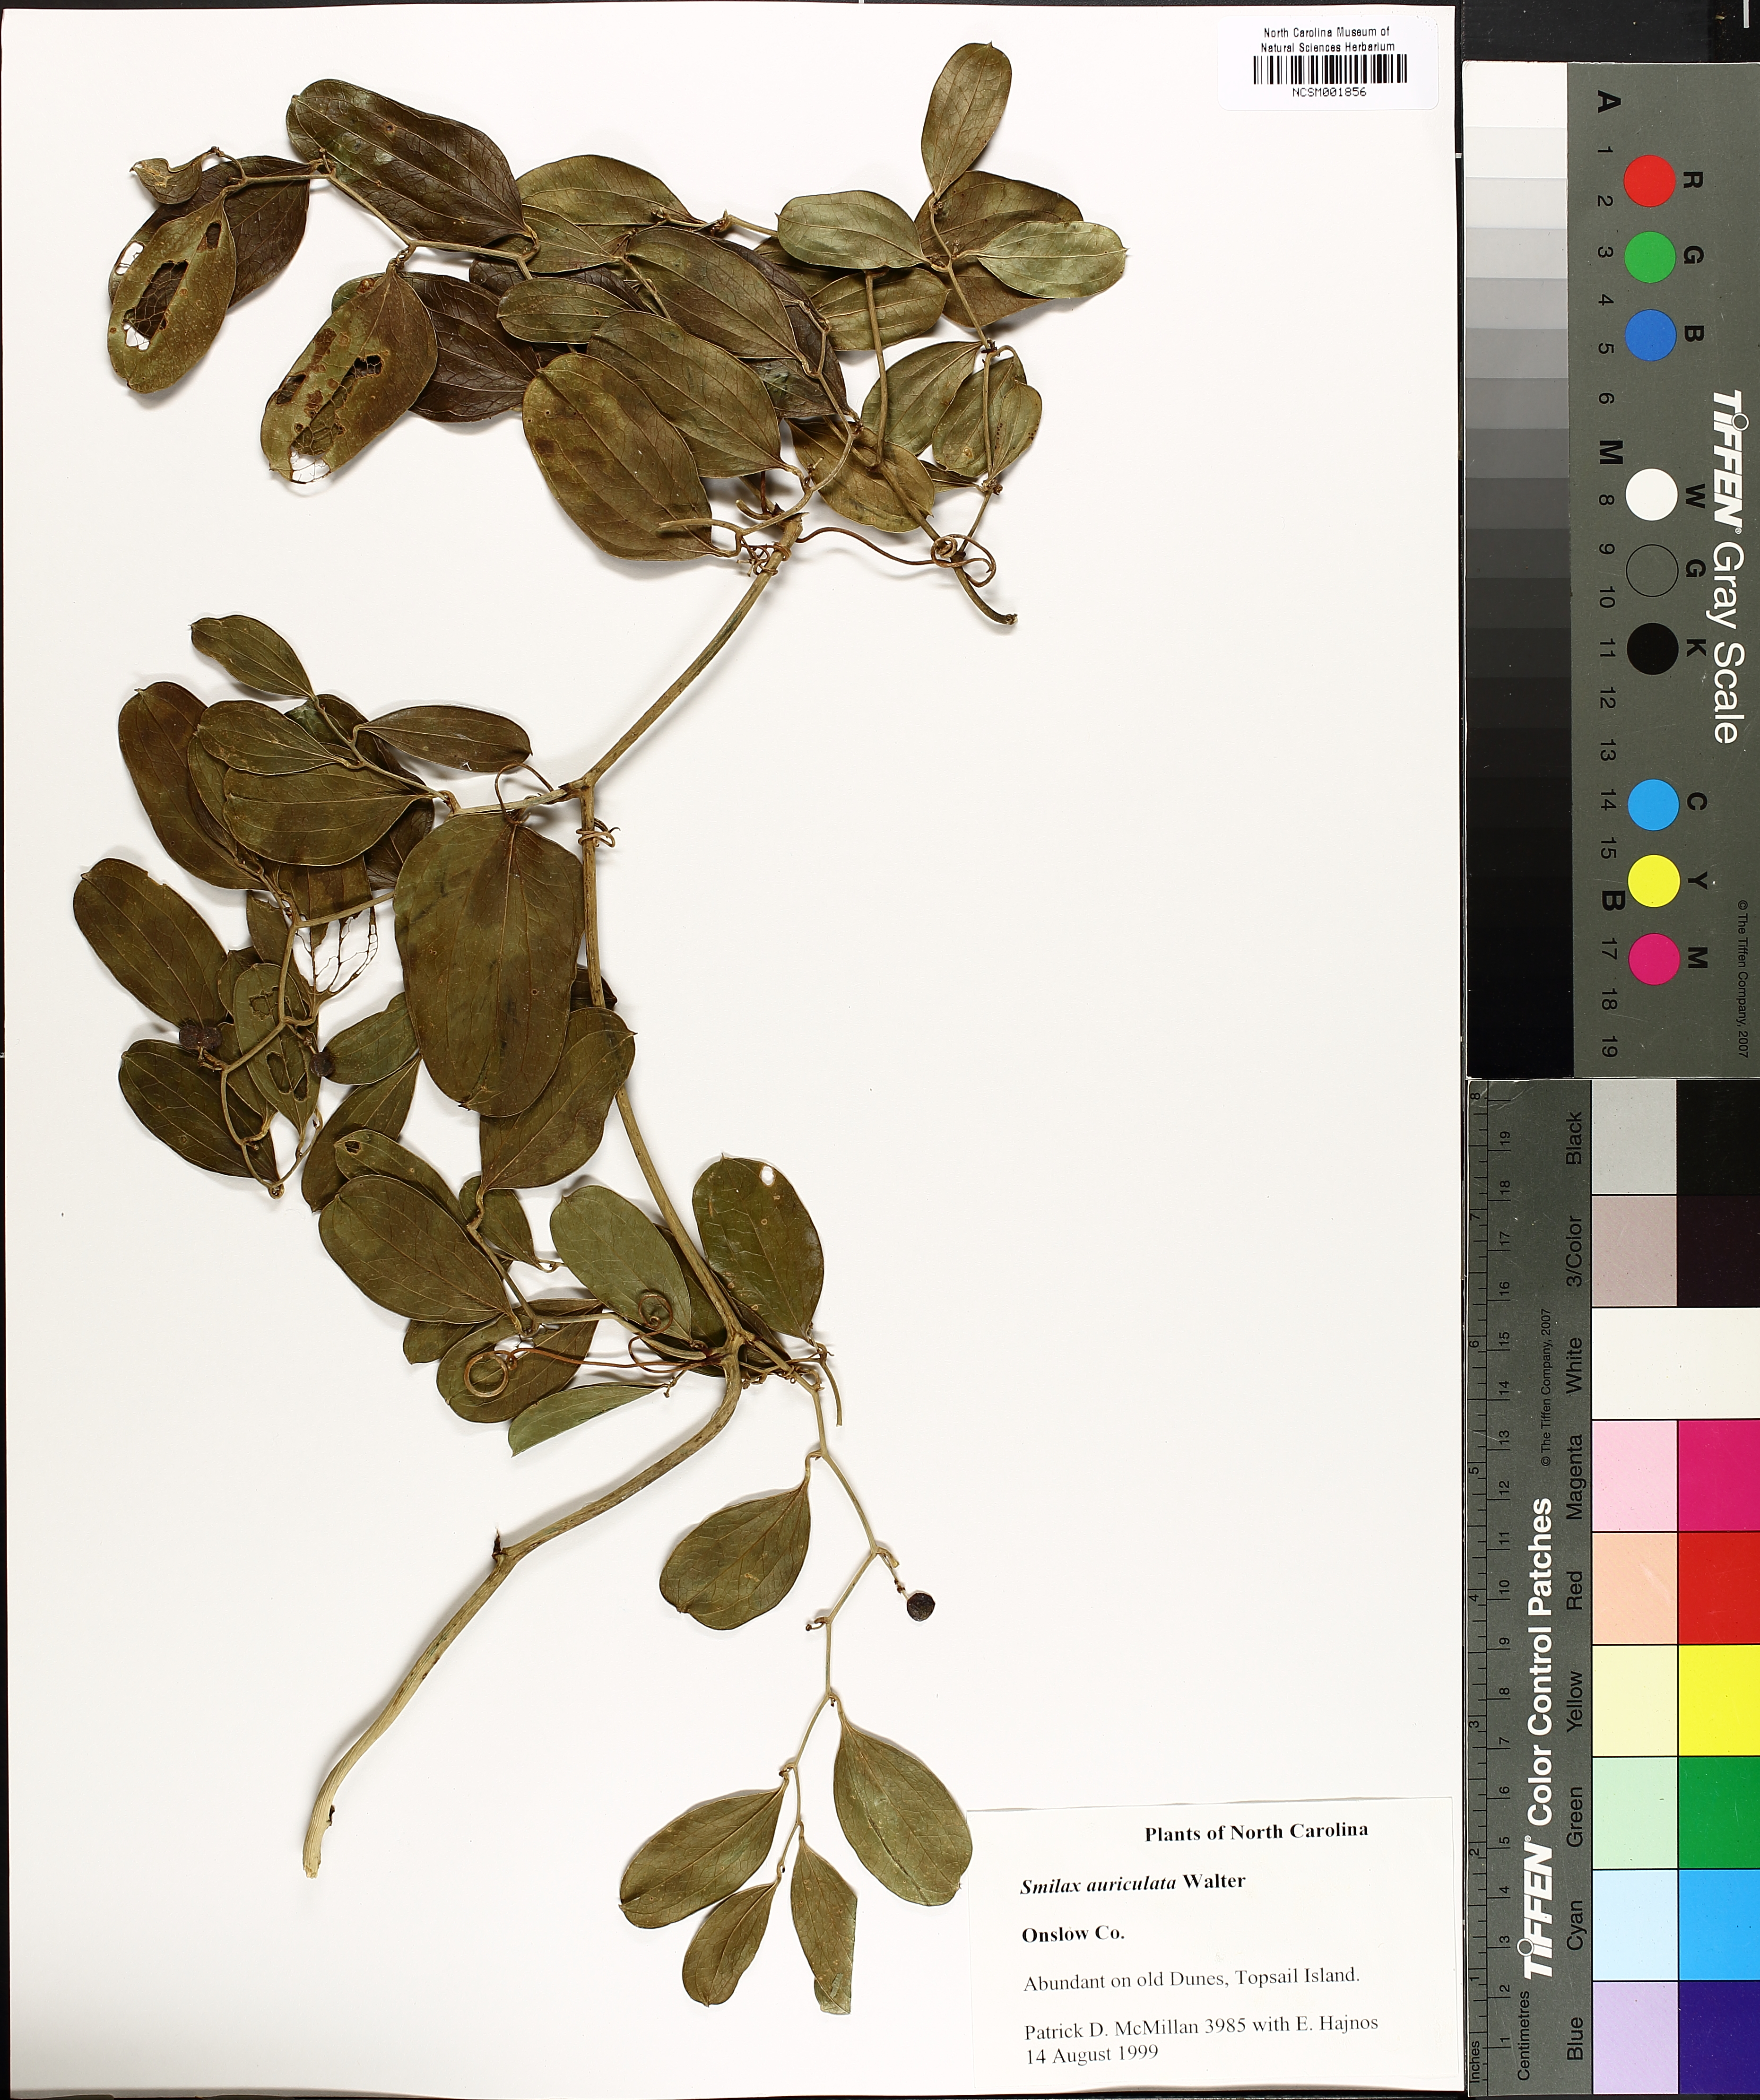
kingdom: Plantae
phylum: Tracheophyta
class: Liliopsida
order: Liliales
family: Smilacaceae
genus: Smilax
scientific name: Smilax auriculata
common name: Wild bamboo
